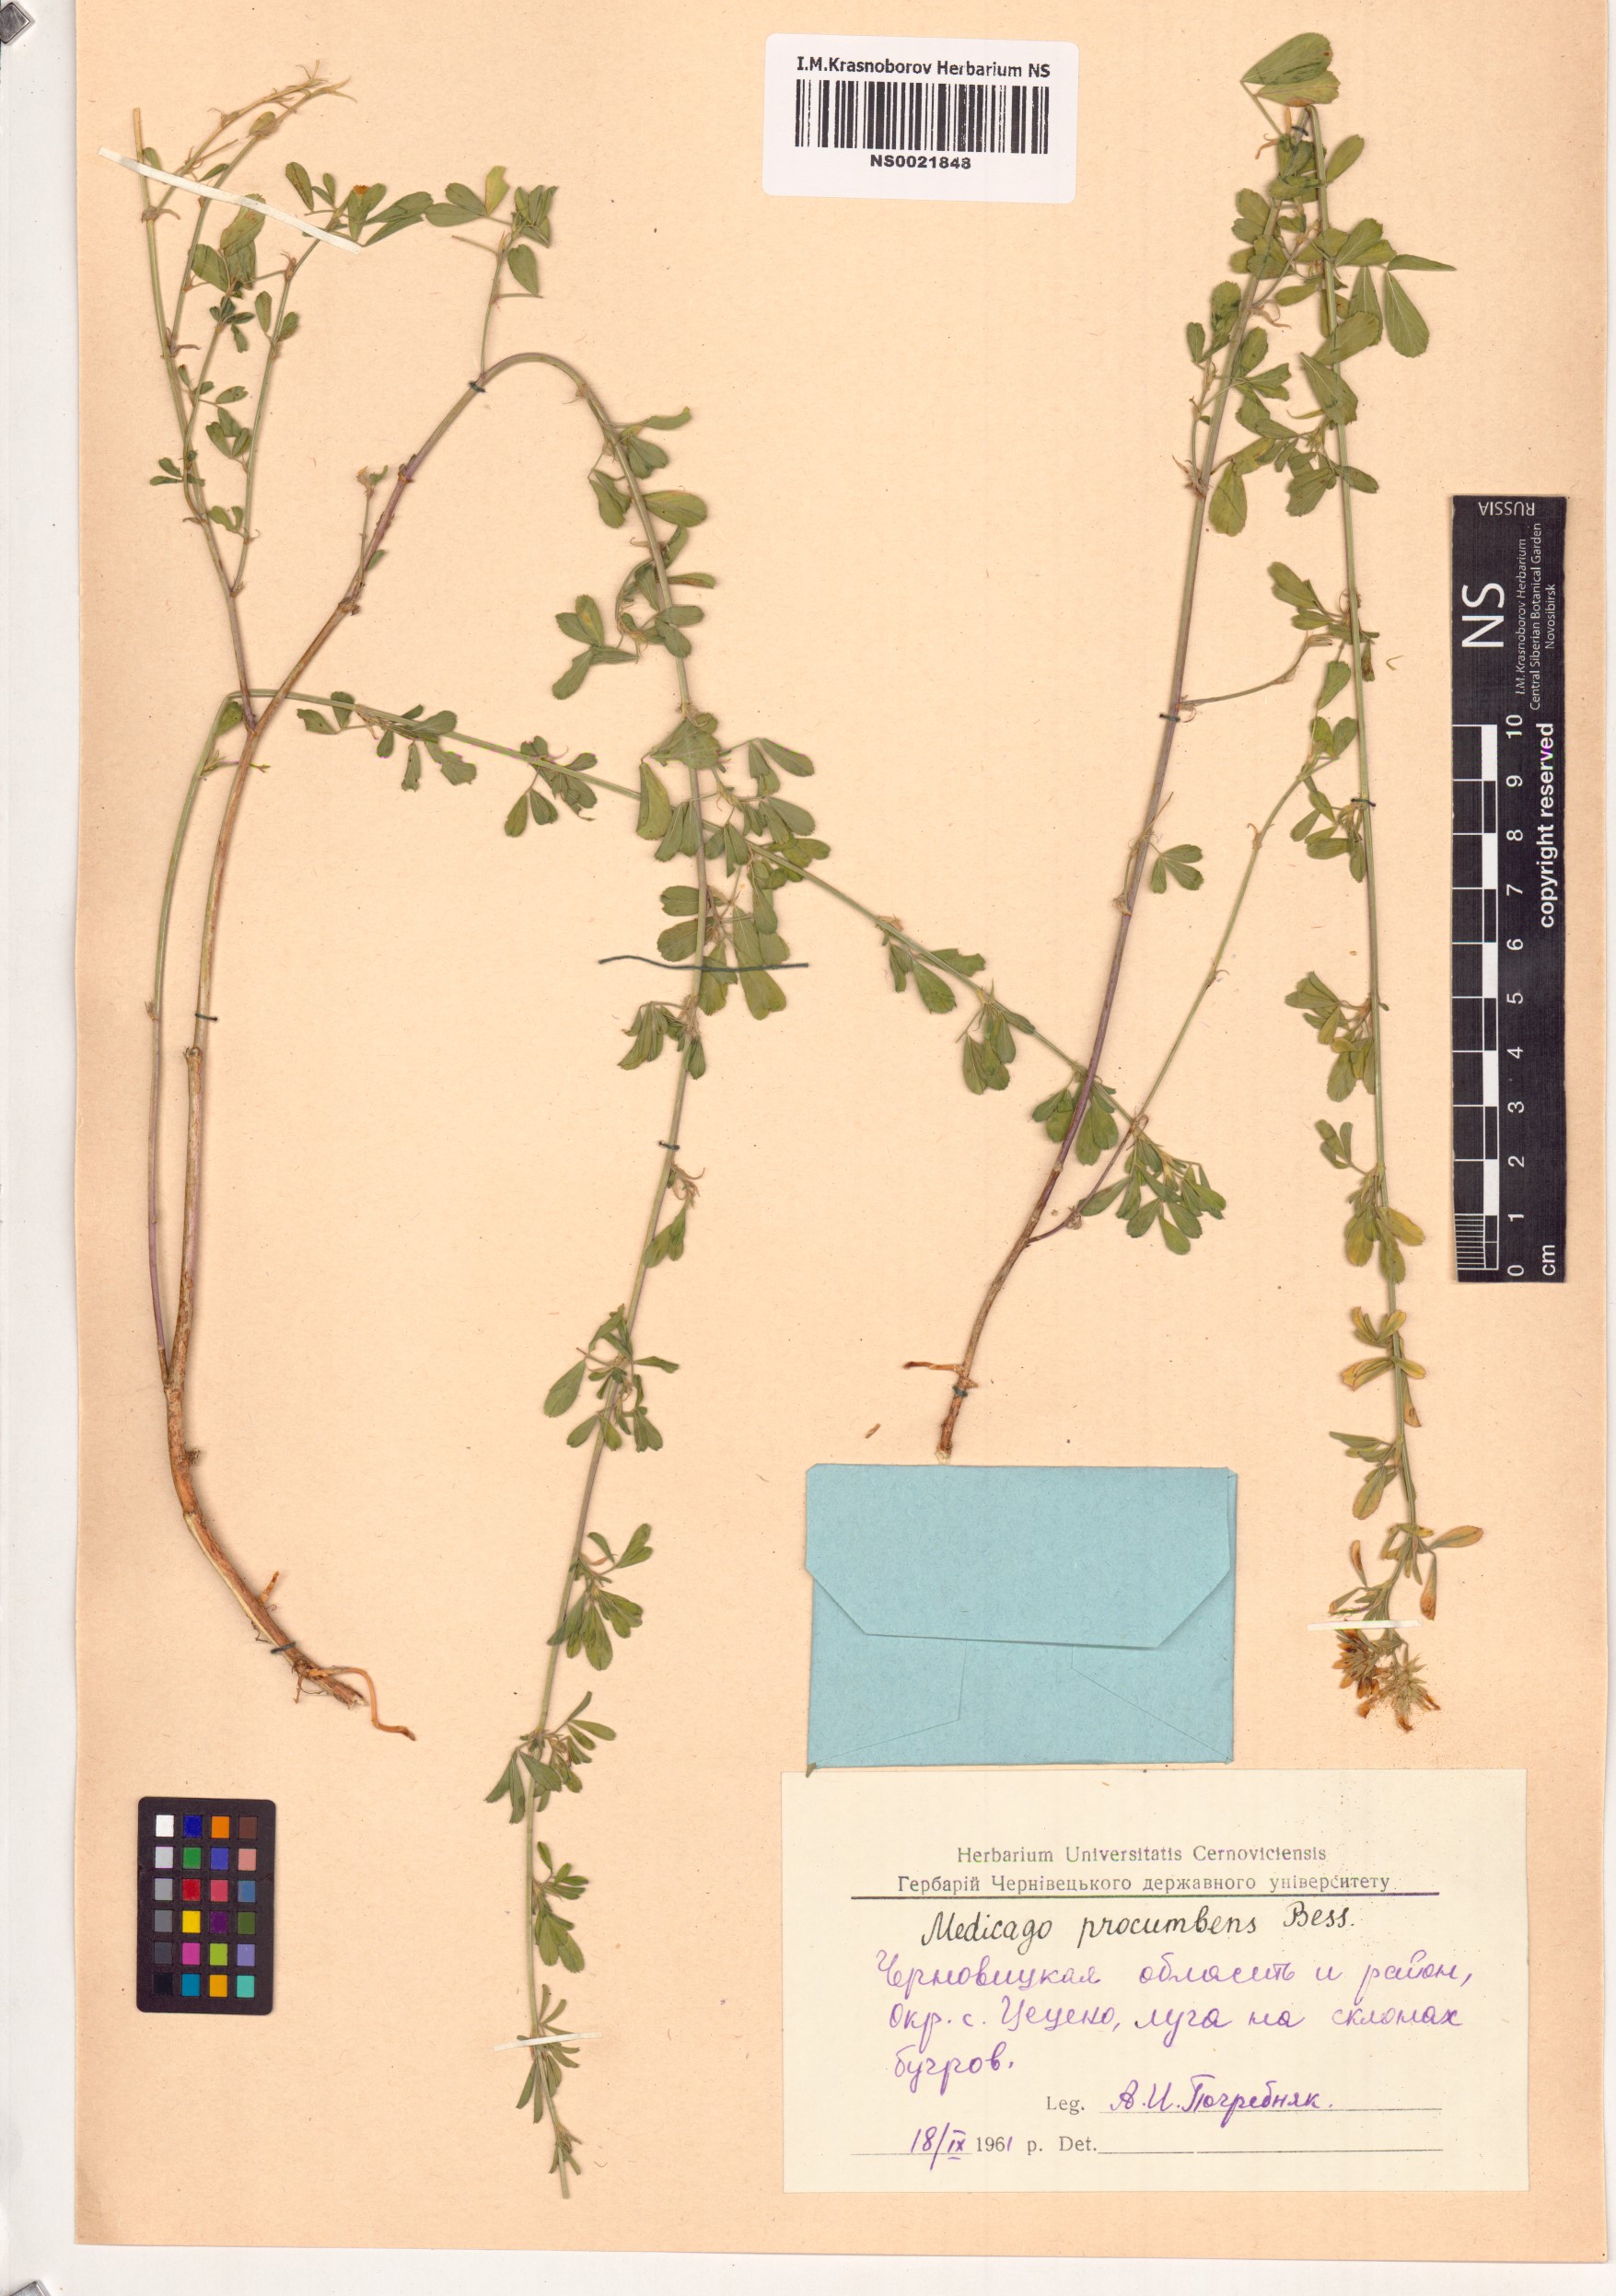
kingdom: Plantae
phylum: Tracheophyta
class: Magnoliopsida
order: Fabales
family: Fabaceae
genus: Medicago
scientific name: Medicago falcata
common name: Sickle medick
